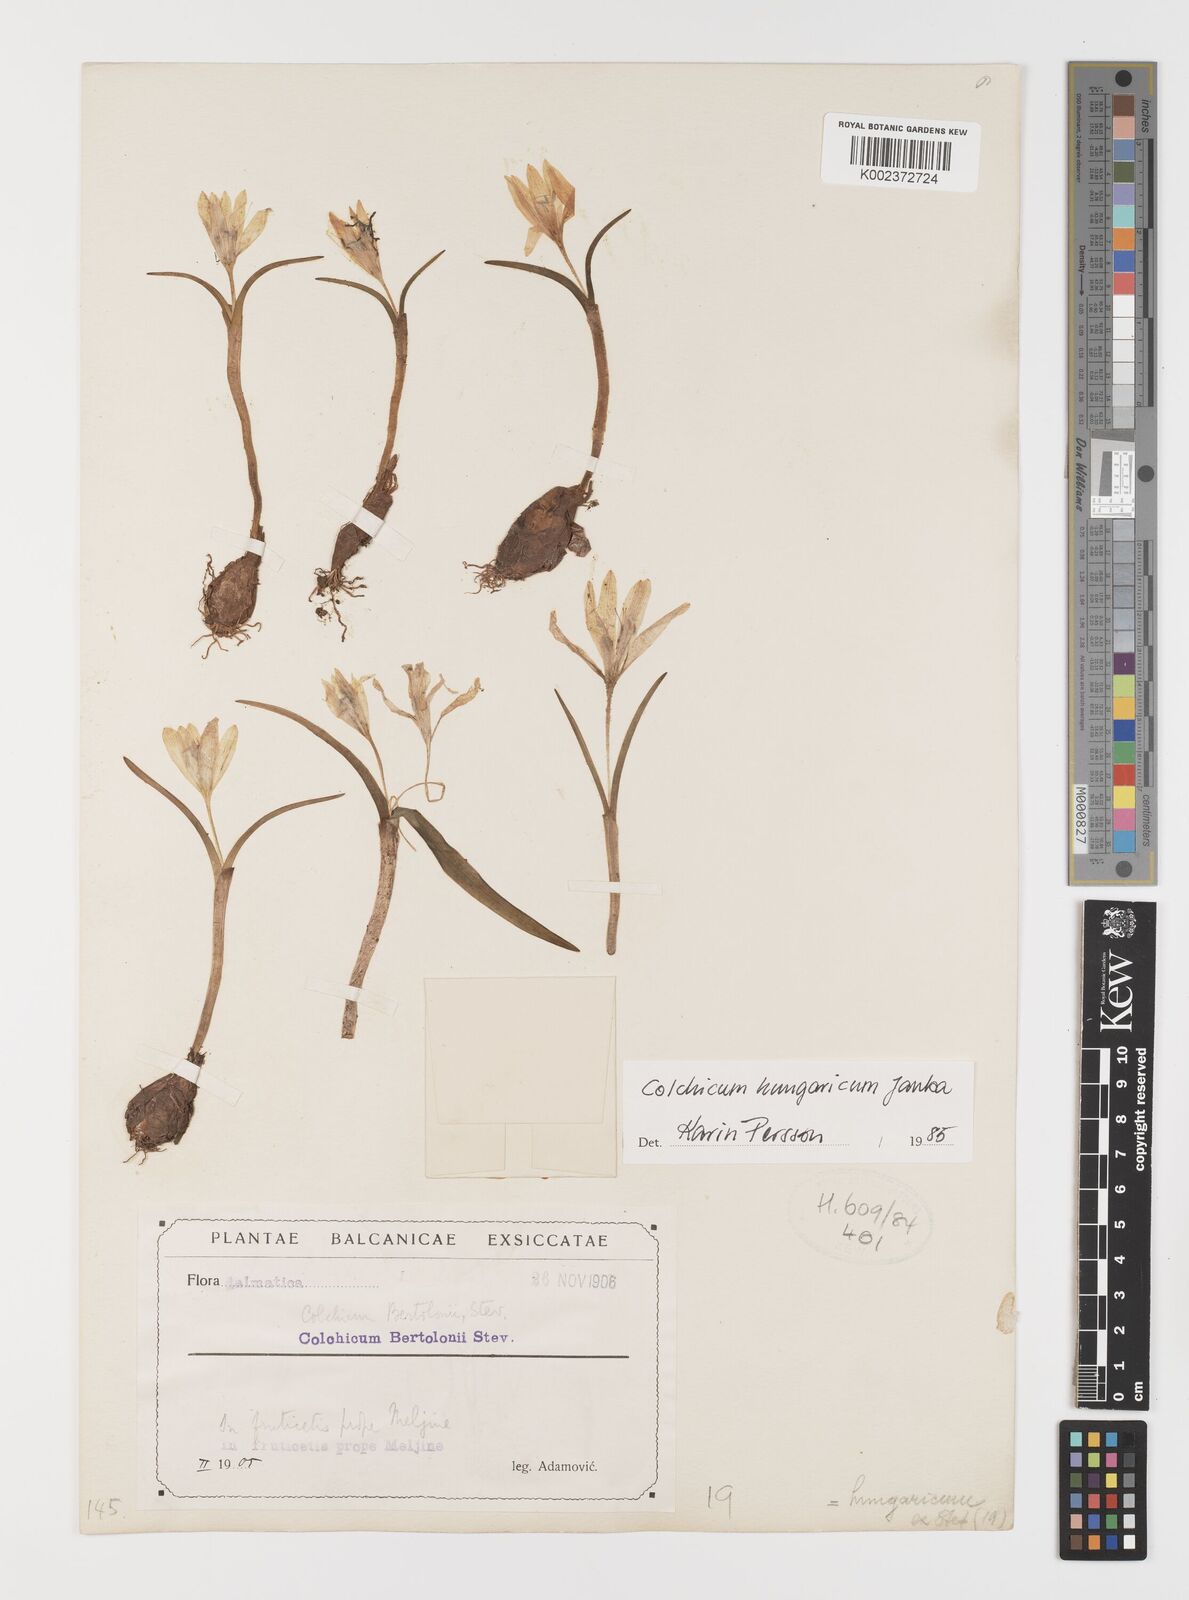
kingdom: Plantae
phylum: Tracheophyta
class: Liliopsida
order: Liliales
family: Colchicaceae
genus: Colchicum
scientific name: Colchicum hungaricum
